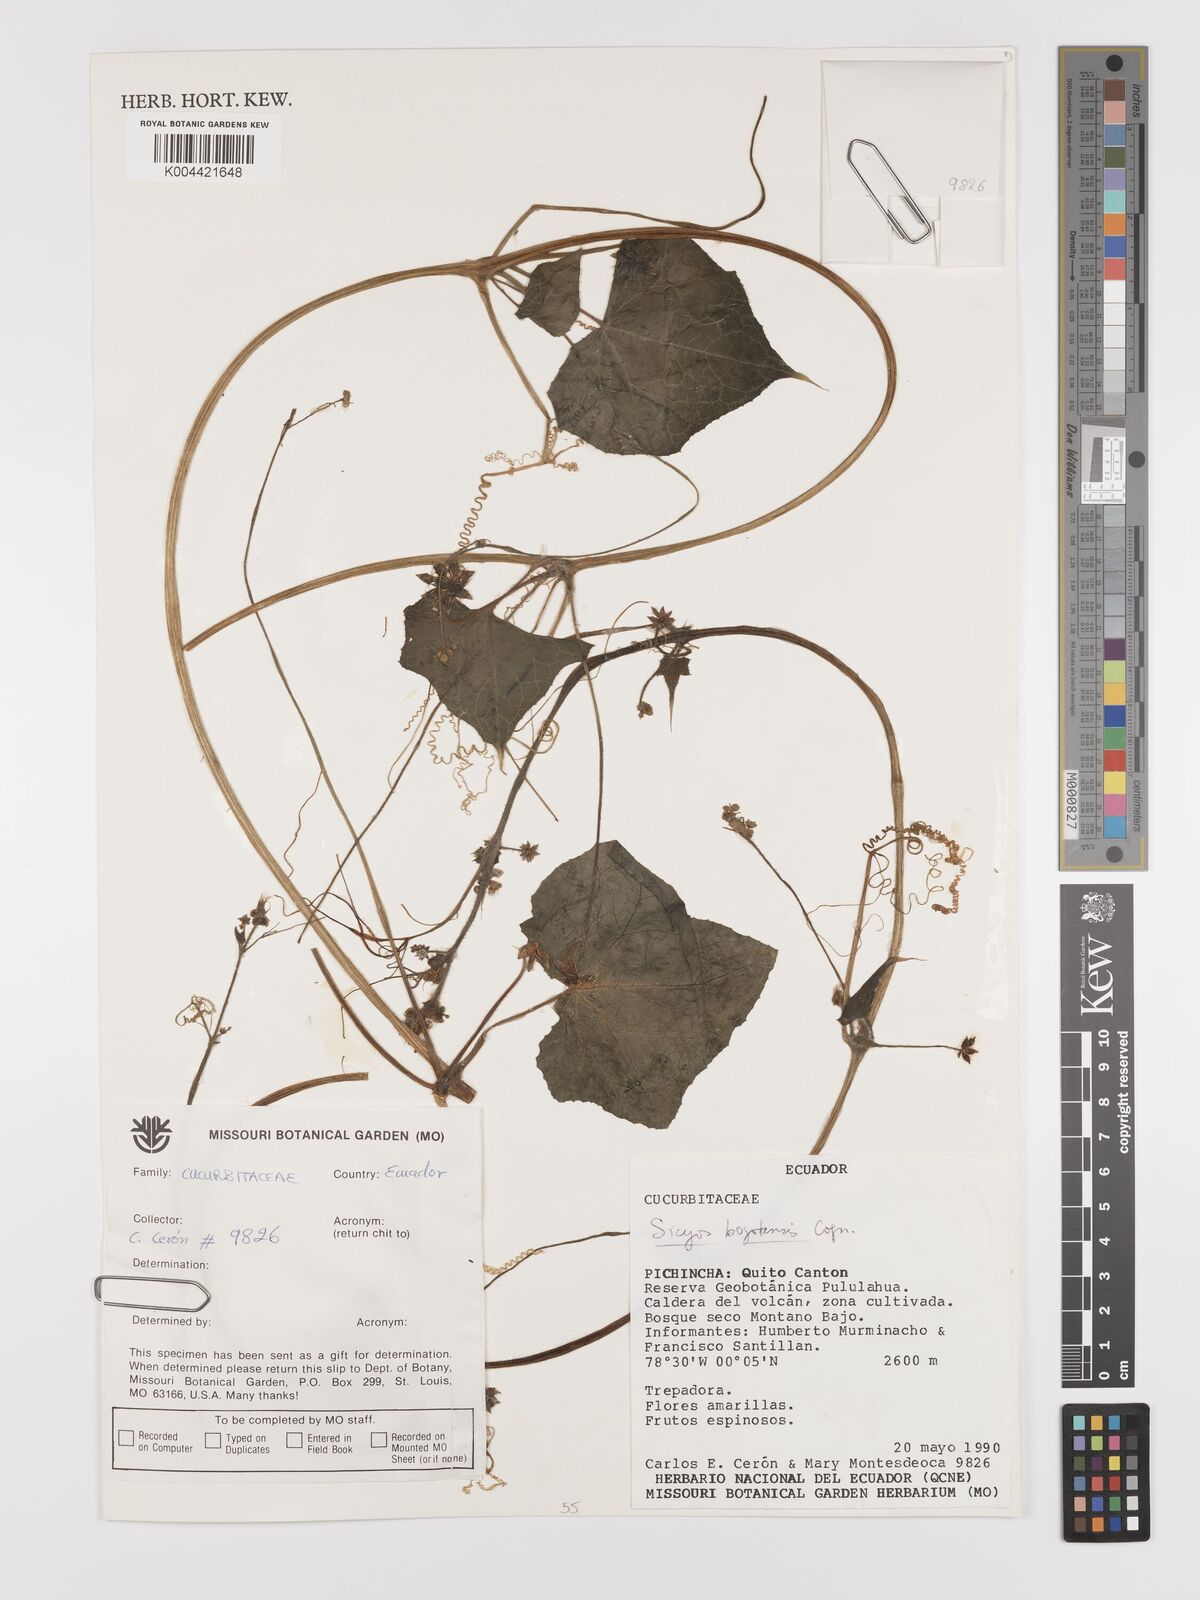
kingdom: Plantae
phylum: Tracheophyta
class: Magnoliopsida
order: Cucurbitales
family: Cucurbitaceae
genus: Sicyos
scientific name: Sicyos bogotensis
